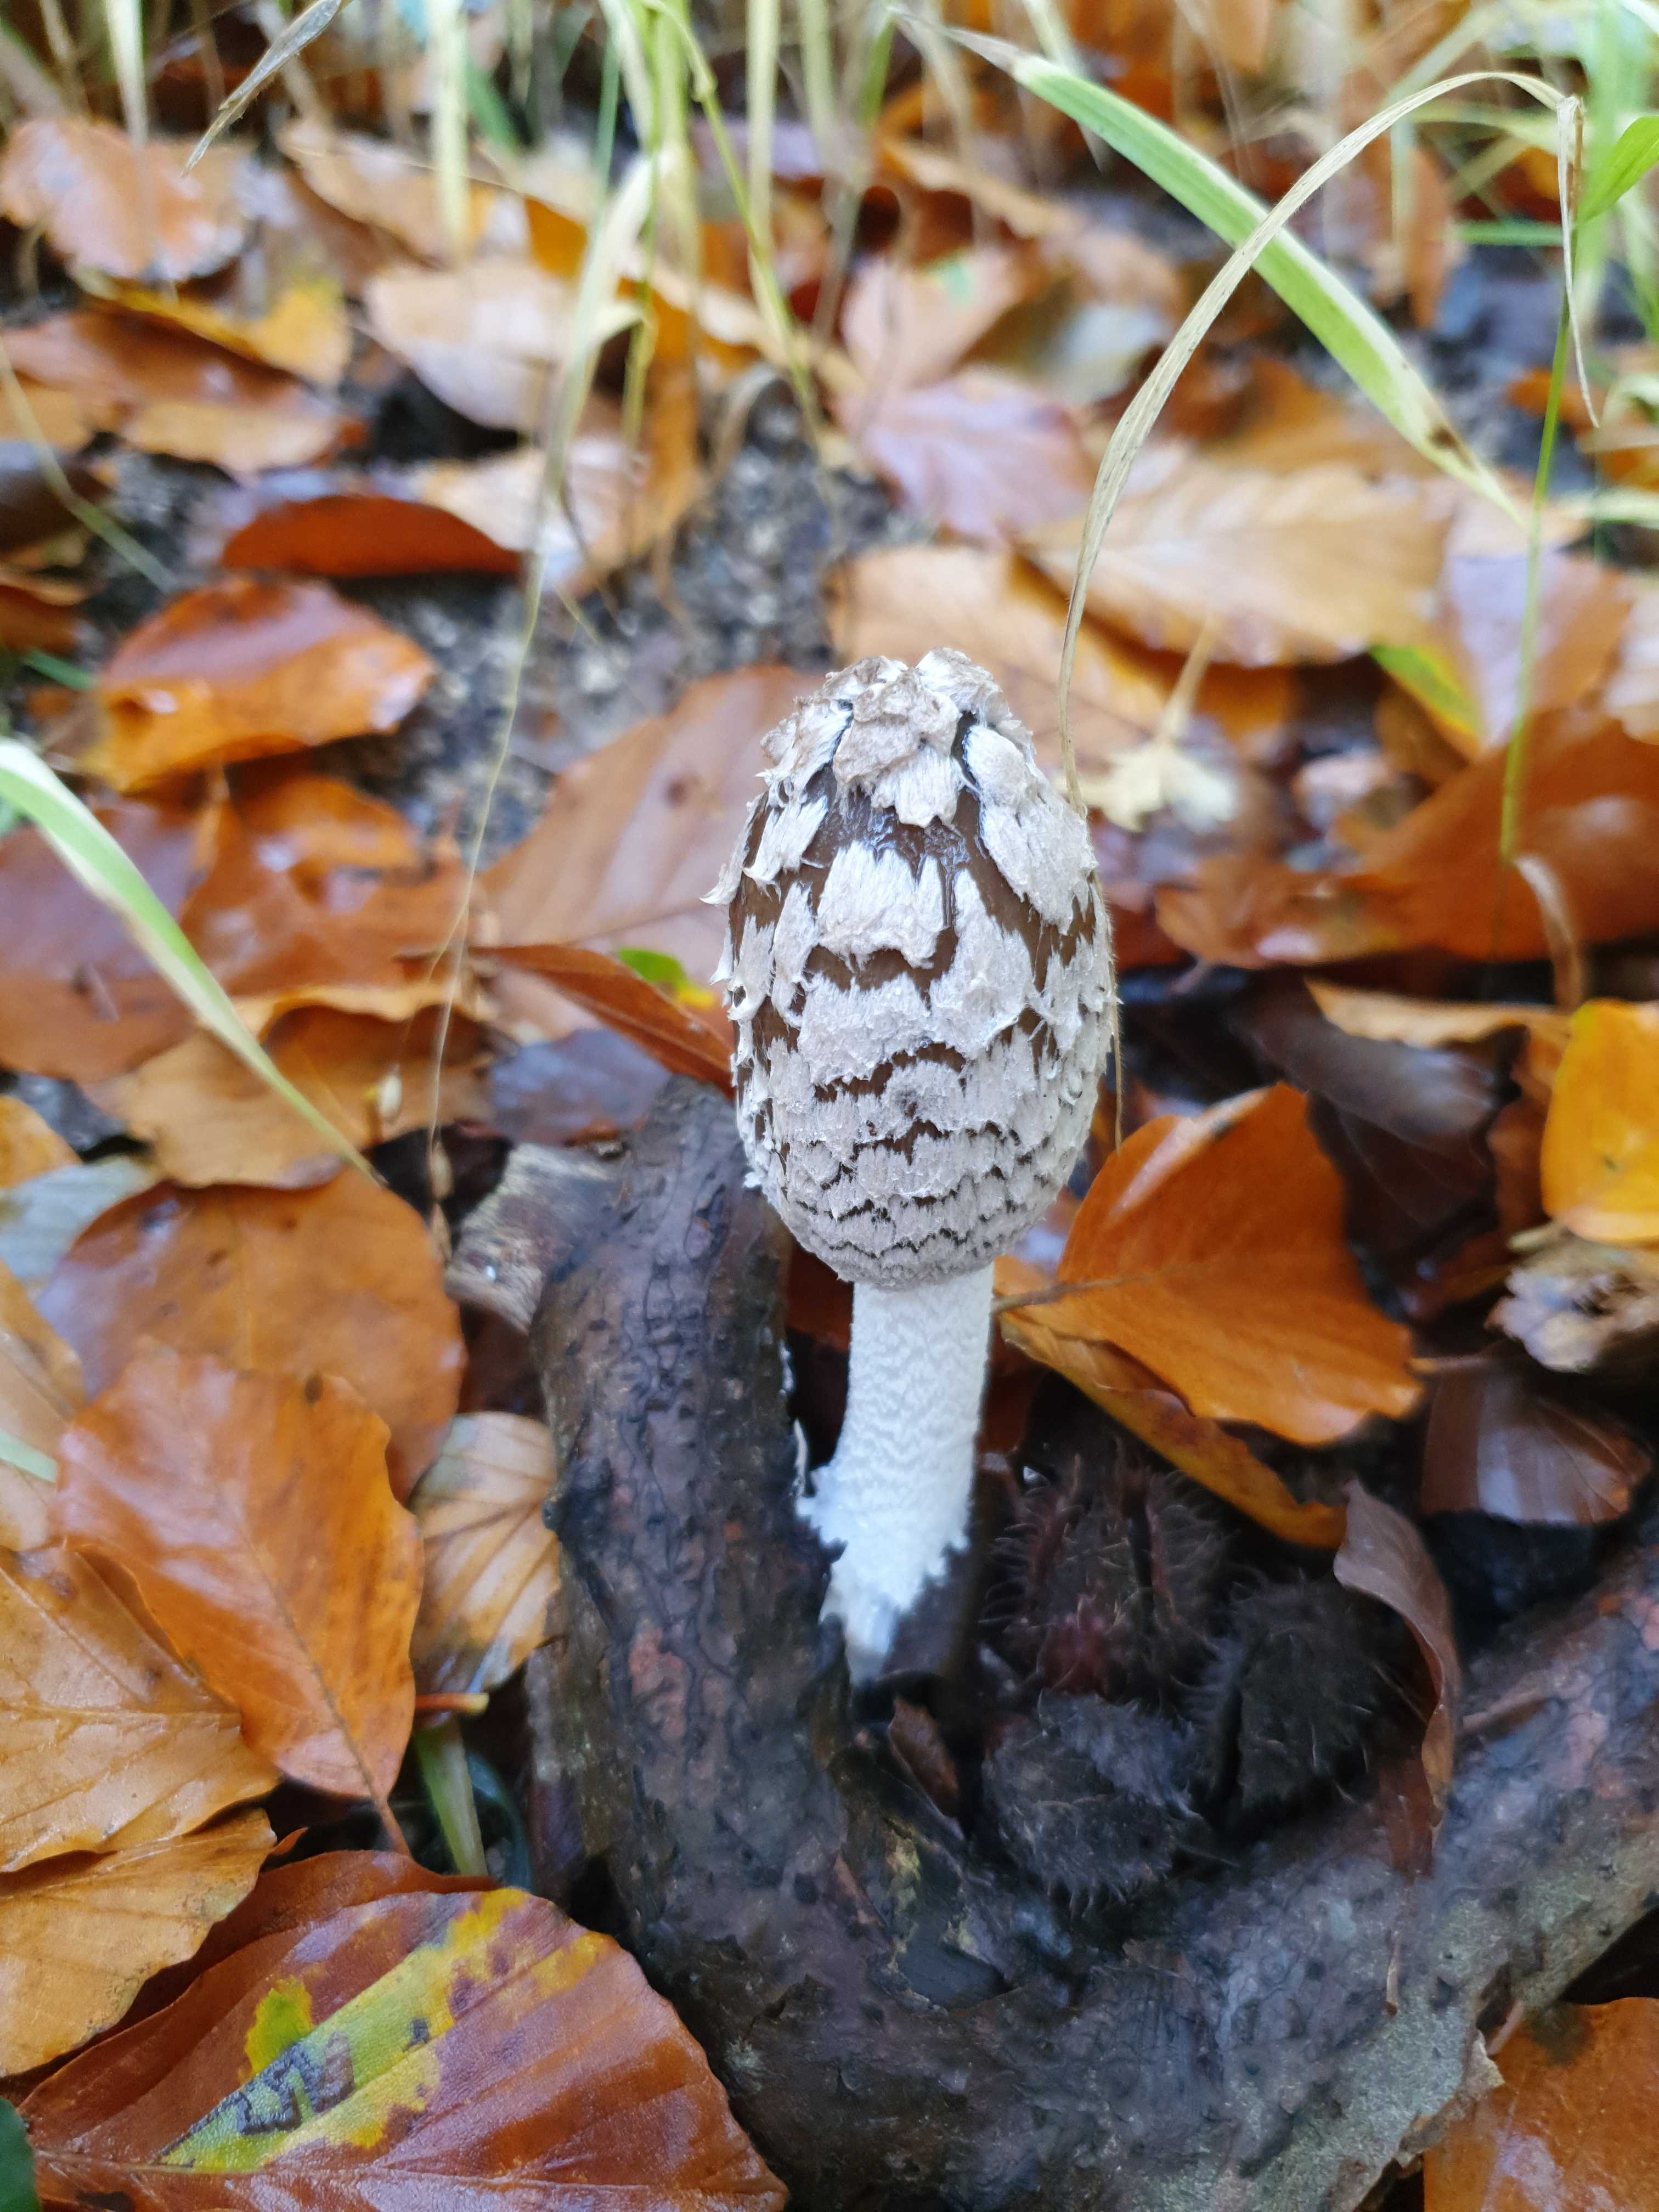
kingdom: Fungi
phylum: Basidiomycota
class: Agaricomycetes
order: Agaricales
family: Psathyrellaceae
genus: Coprinopsis
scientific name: Coprinopsis picacea
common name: skade-blækhat
